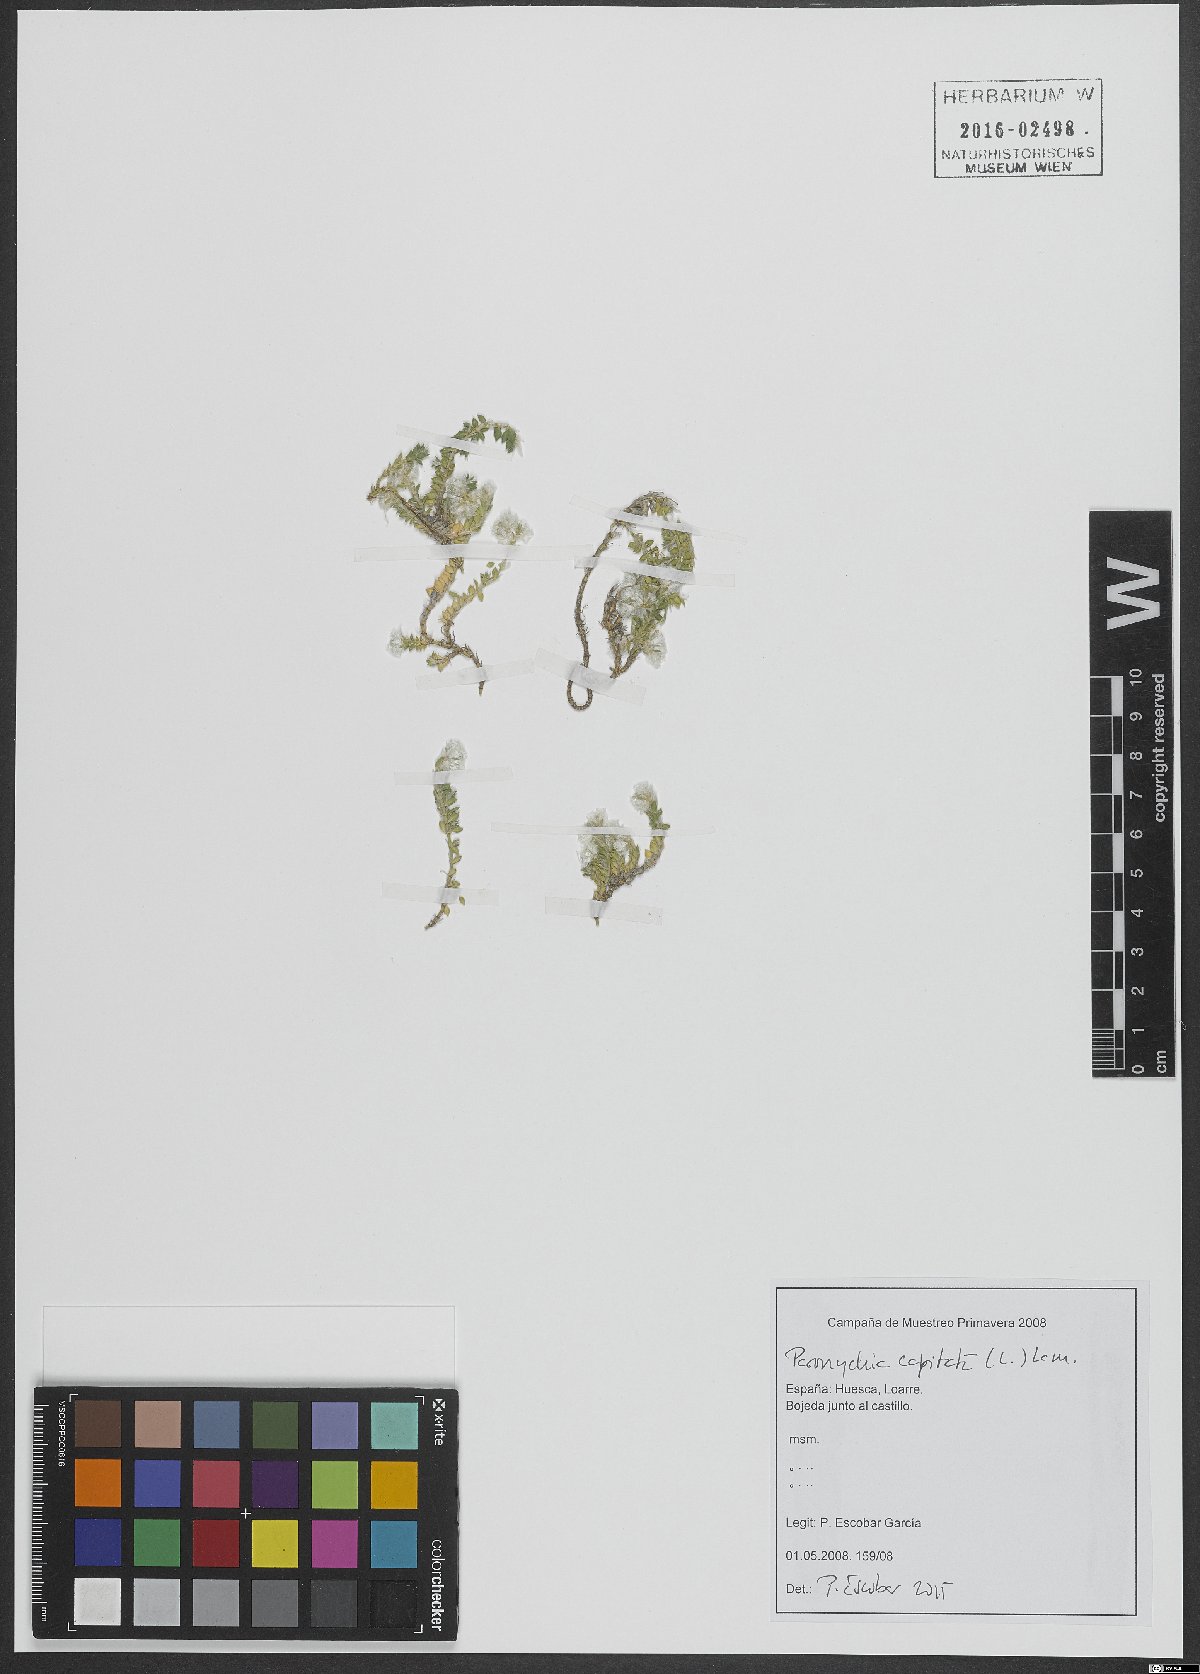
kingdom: Plantae
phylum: Tracheophyta
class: Magnoliopsida
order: Caryophyllales
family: Caryophyllaceae
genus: Paronychia
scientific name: Paronychia capitata
